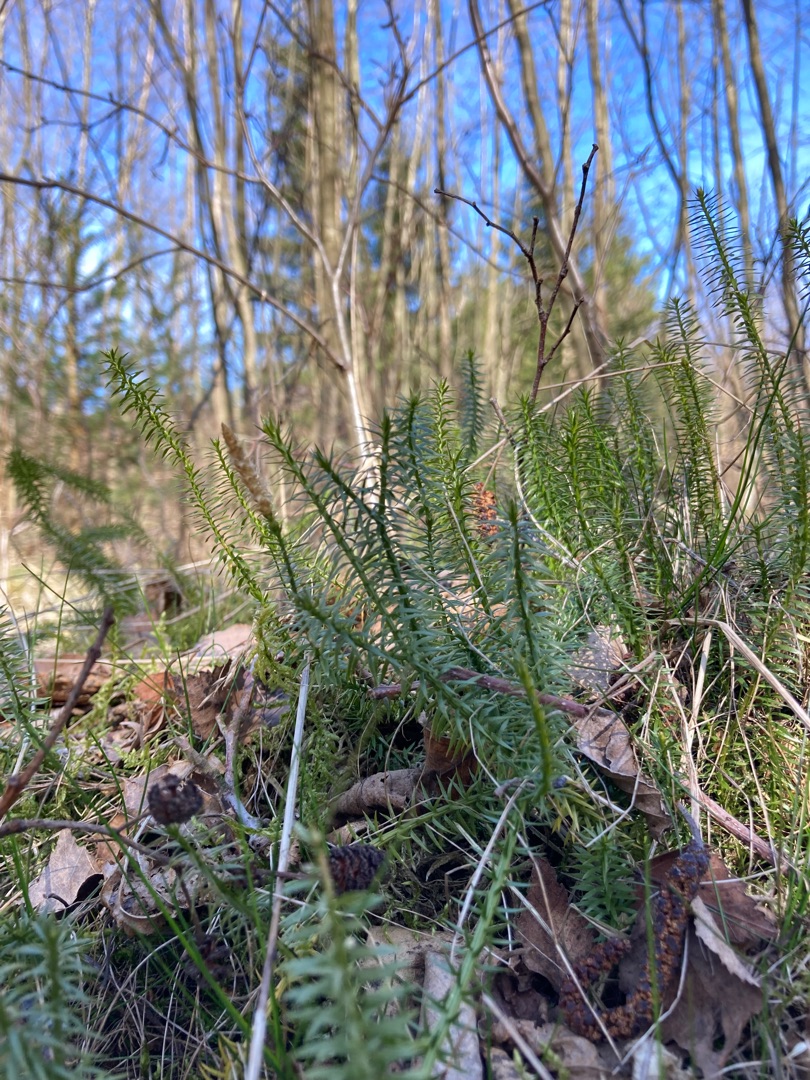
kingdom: Plantae
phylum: Tracheophyta
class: Lycopodiopsida
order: Lycopodiales
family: Lycopodiaceae
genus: Spinulum
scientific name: Spinulum annotinum
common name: Femradet ulvefod
